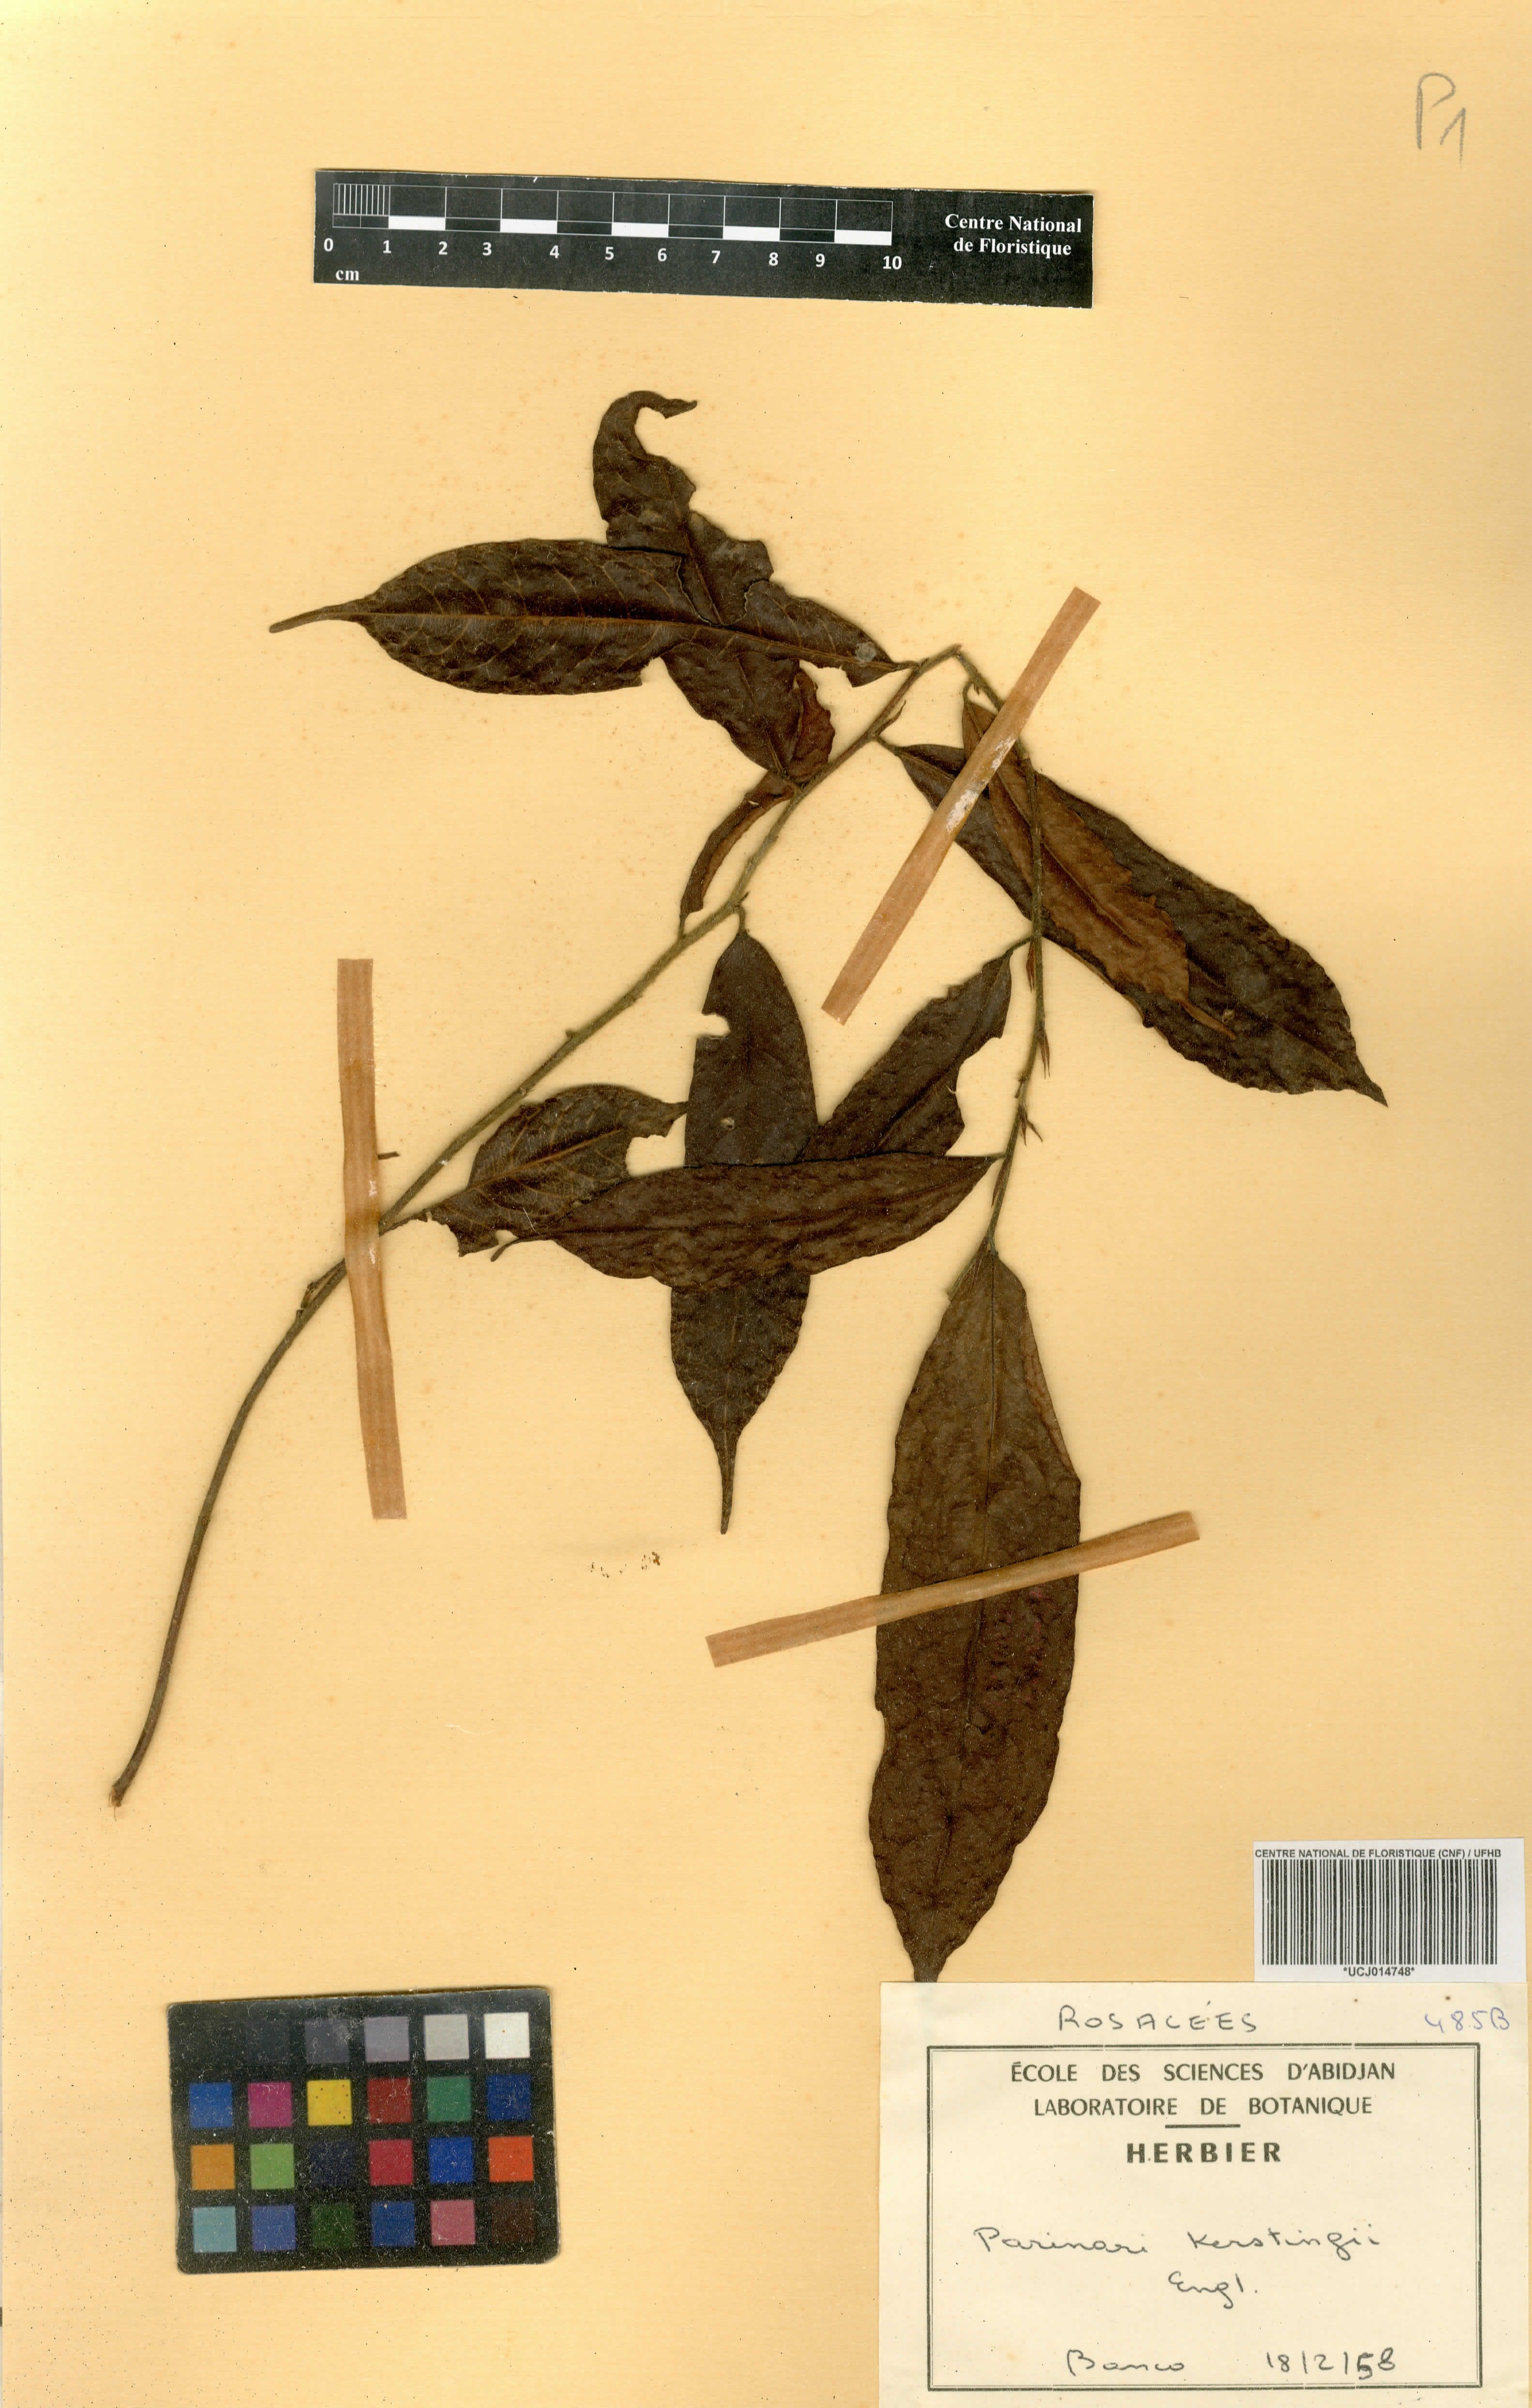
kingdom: Plantae
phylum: Tracheophyta
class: Magnoliopsida
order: Malpighiales
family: Chrysobalanaceae
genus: Maranthes
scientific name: Maranthes kerstingii
